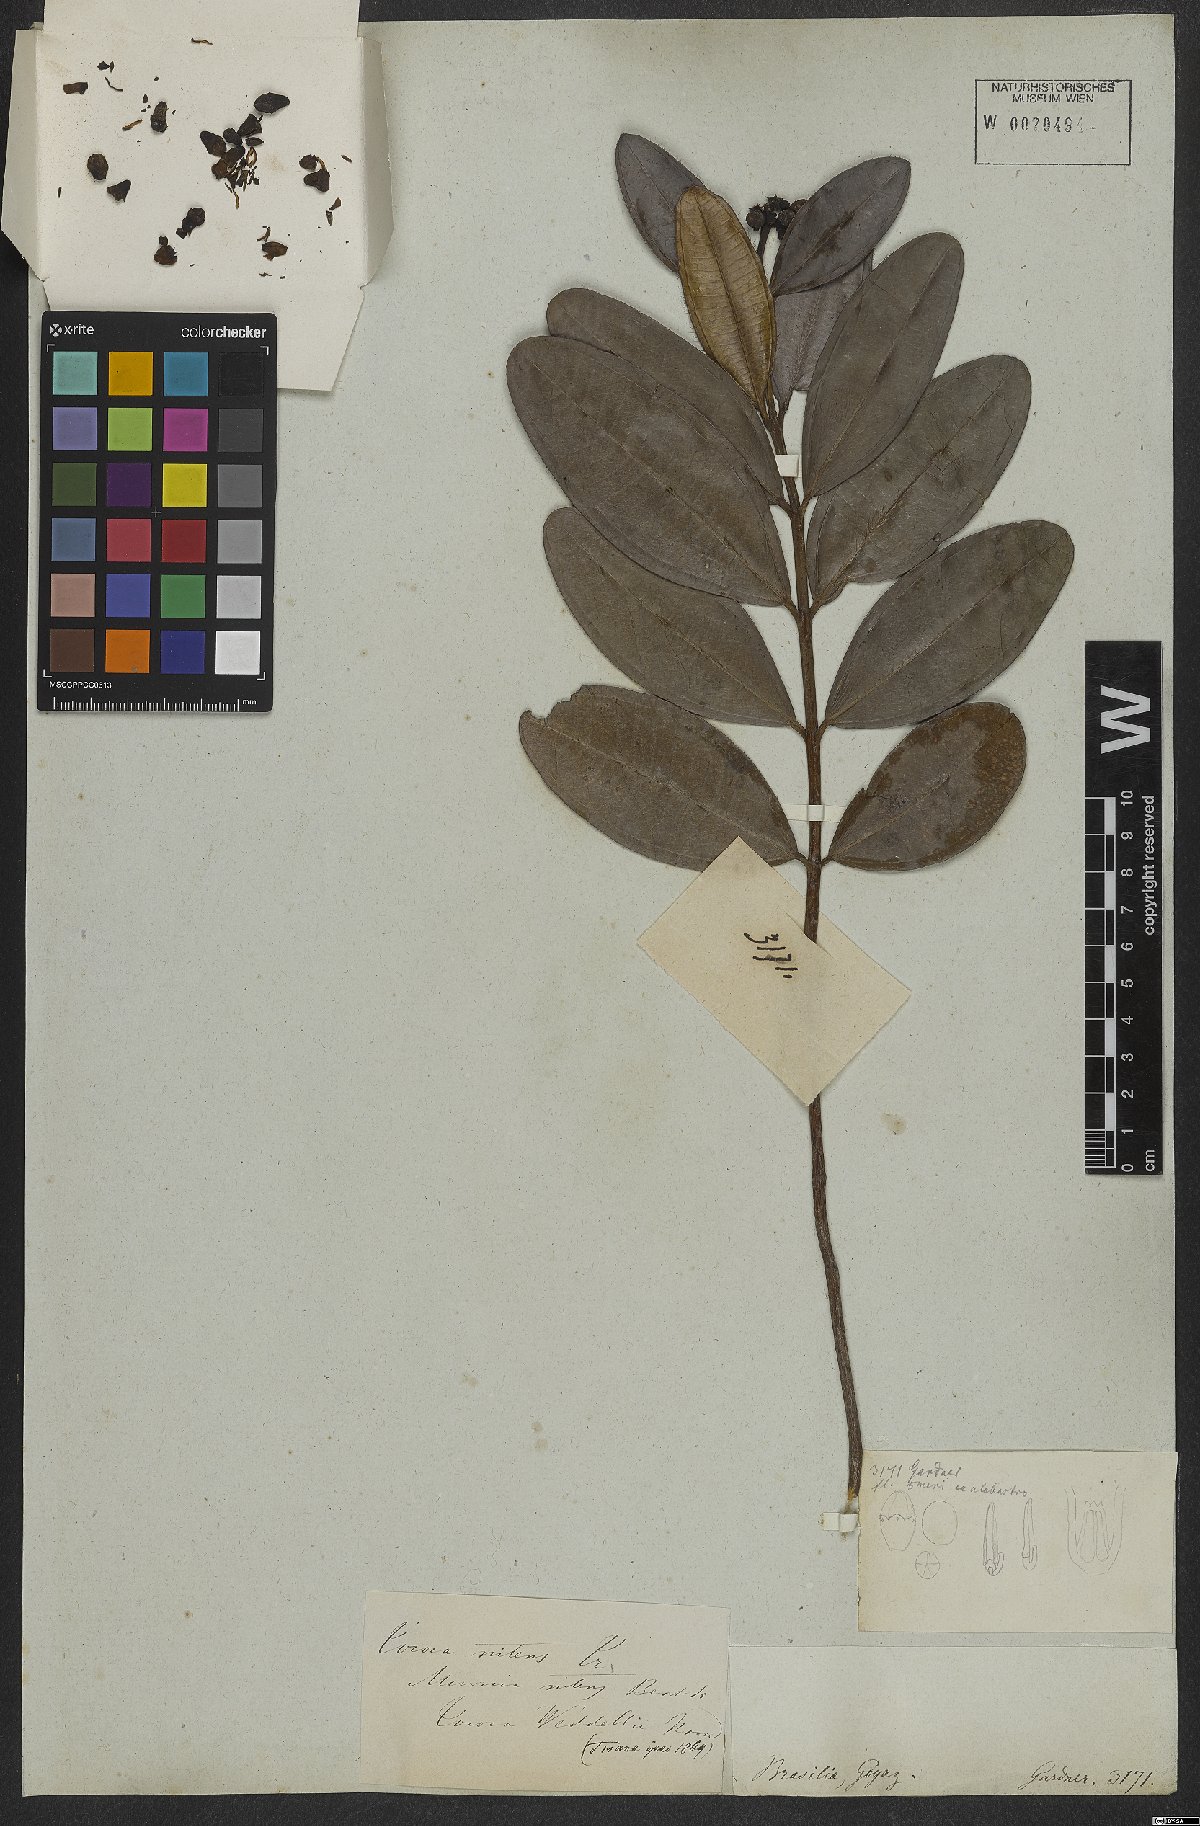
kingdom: Plantae
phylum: Tracheophyta
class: Magnoliopsida
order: Myrtales
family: Melastomataceae
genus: Miconia
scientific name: Miconia nitens
